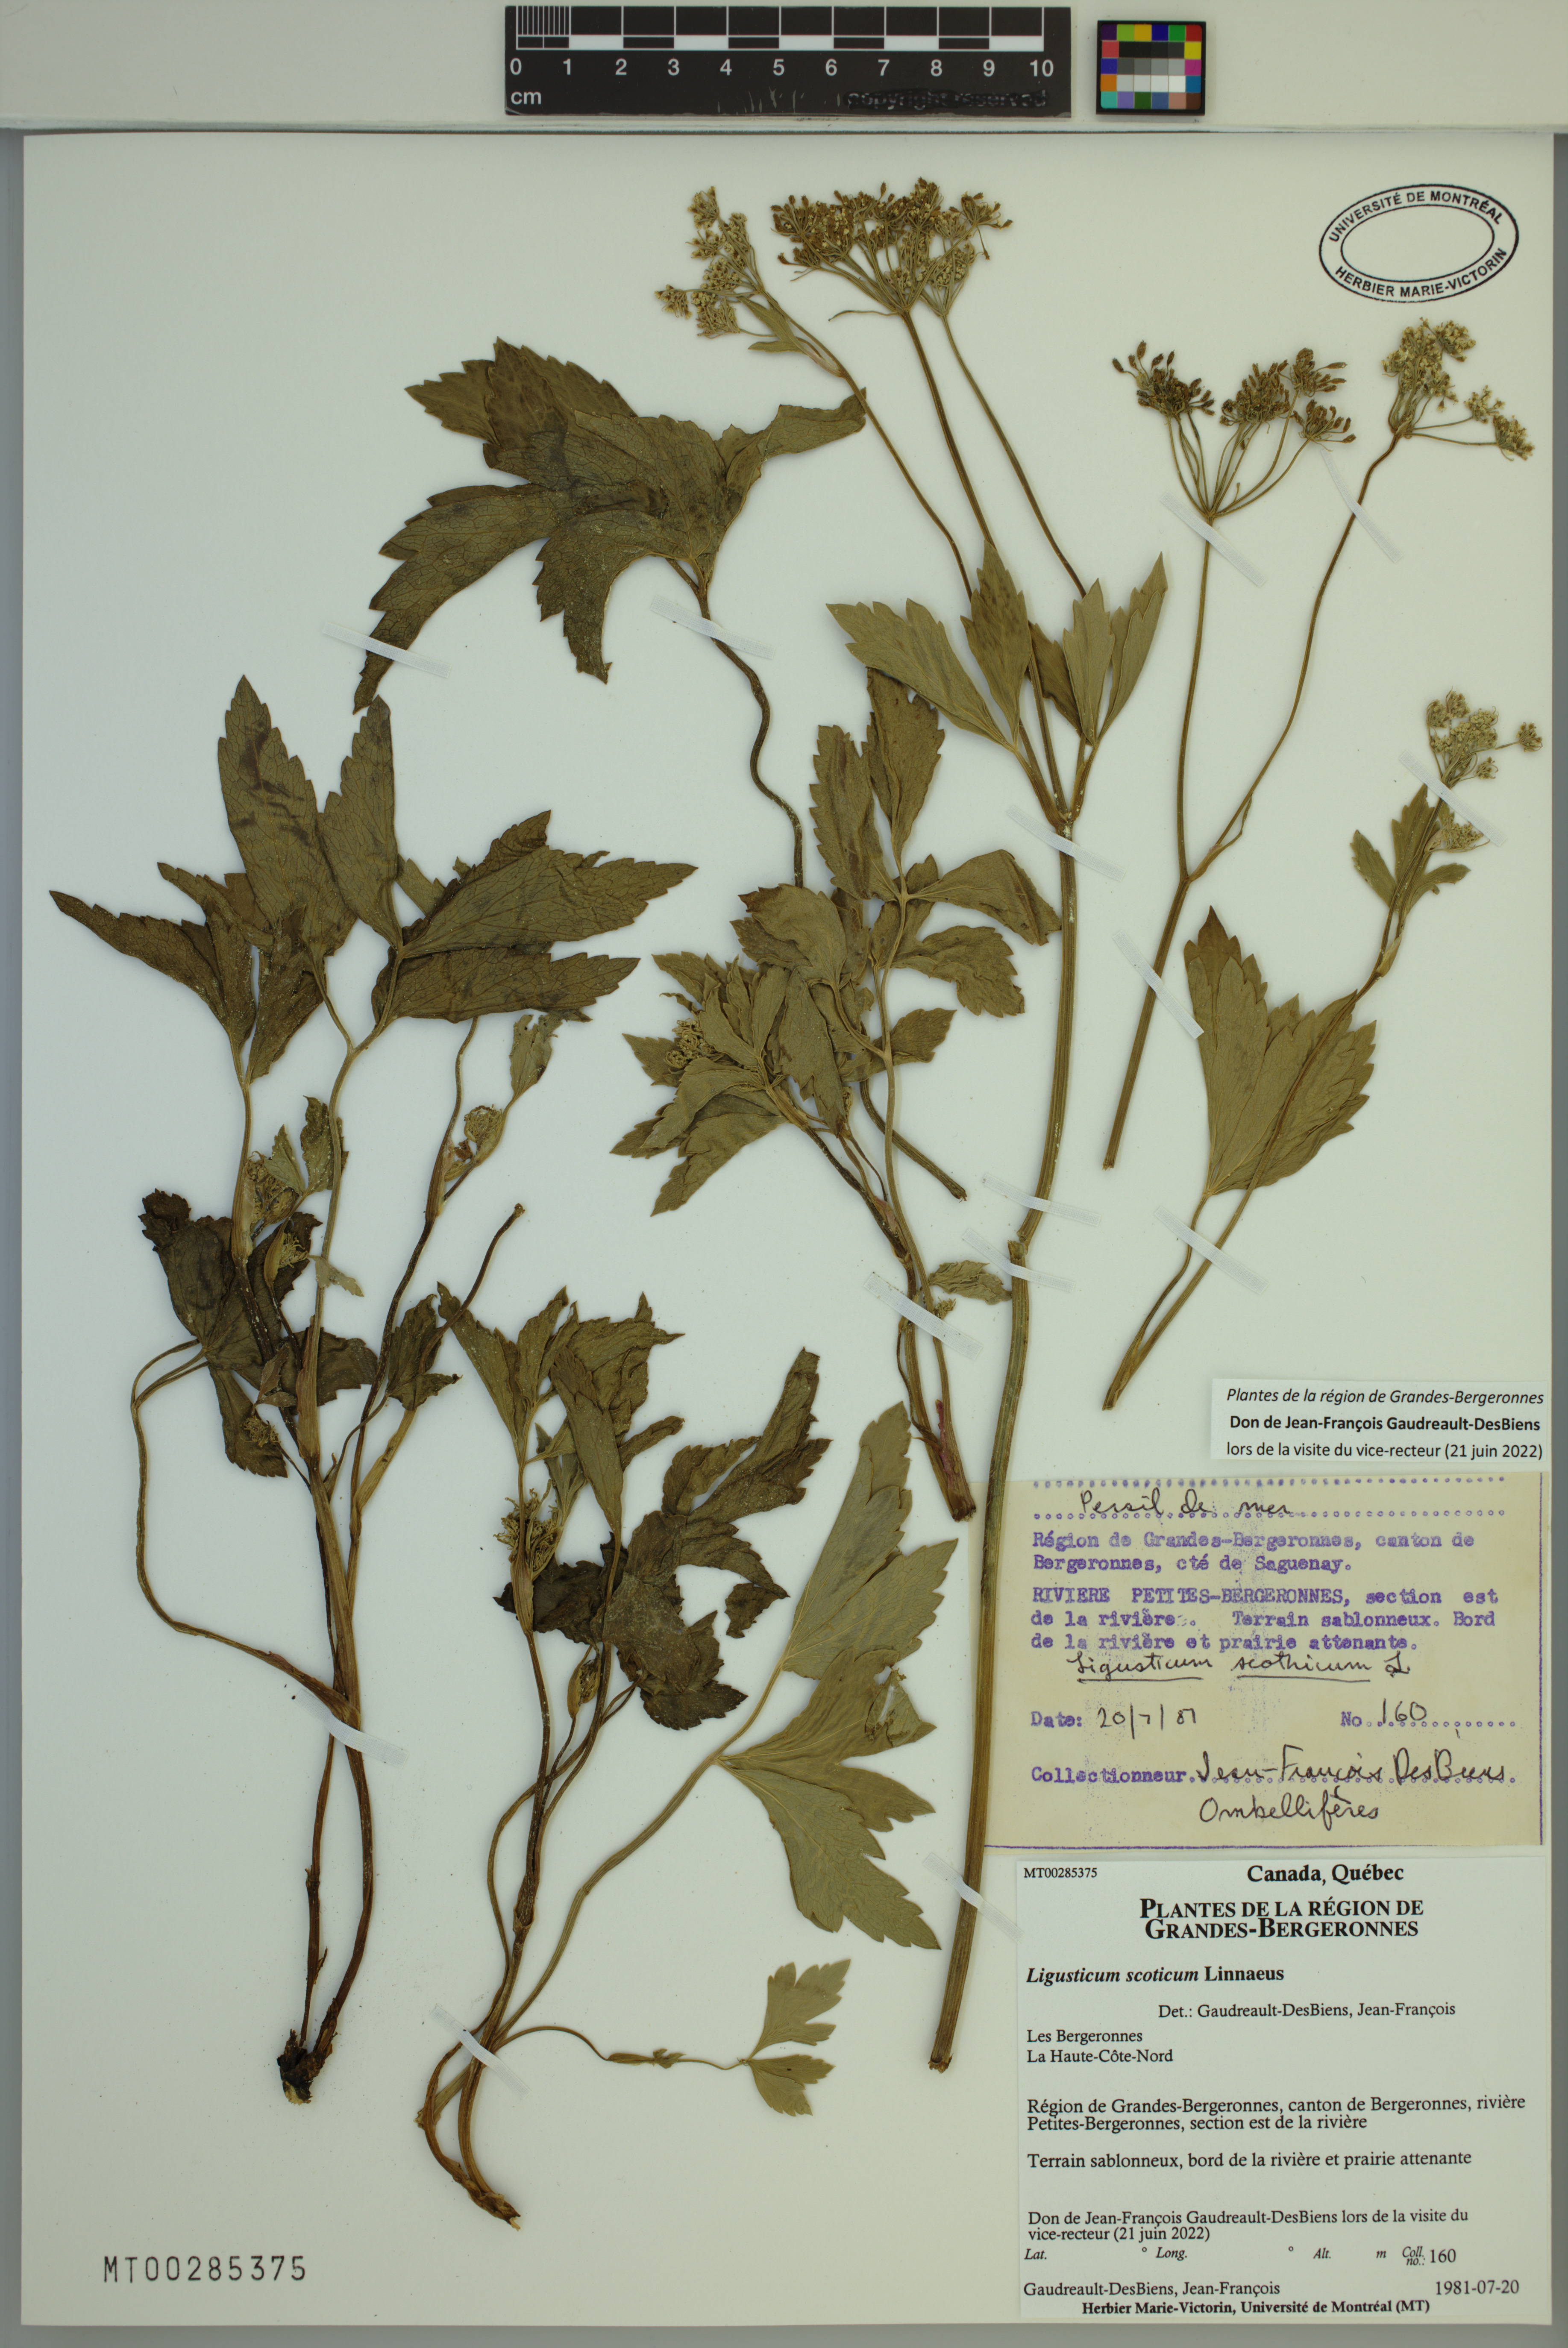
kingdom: Plantae
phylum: Tracheophyta
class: Magnoliopsida
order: Apiales
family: Apiaceae
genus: Ligusticum
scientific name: Ligusticum scothicum
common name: Beach lovage
